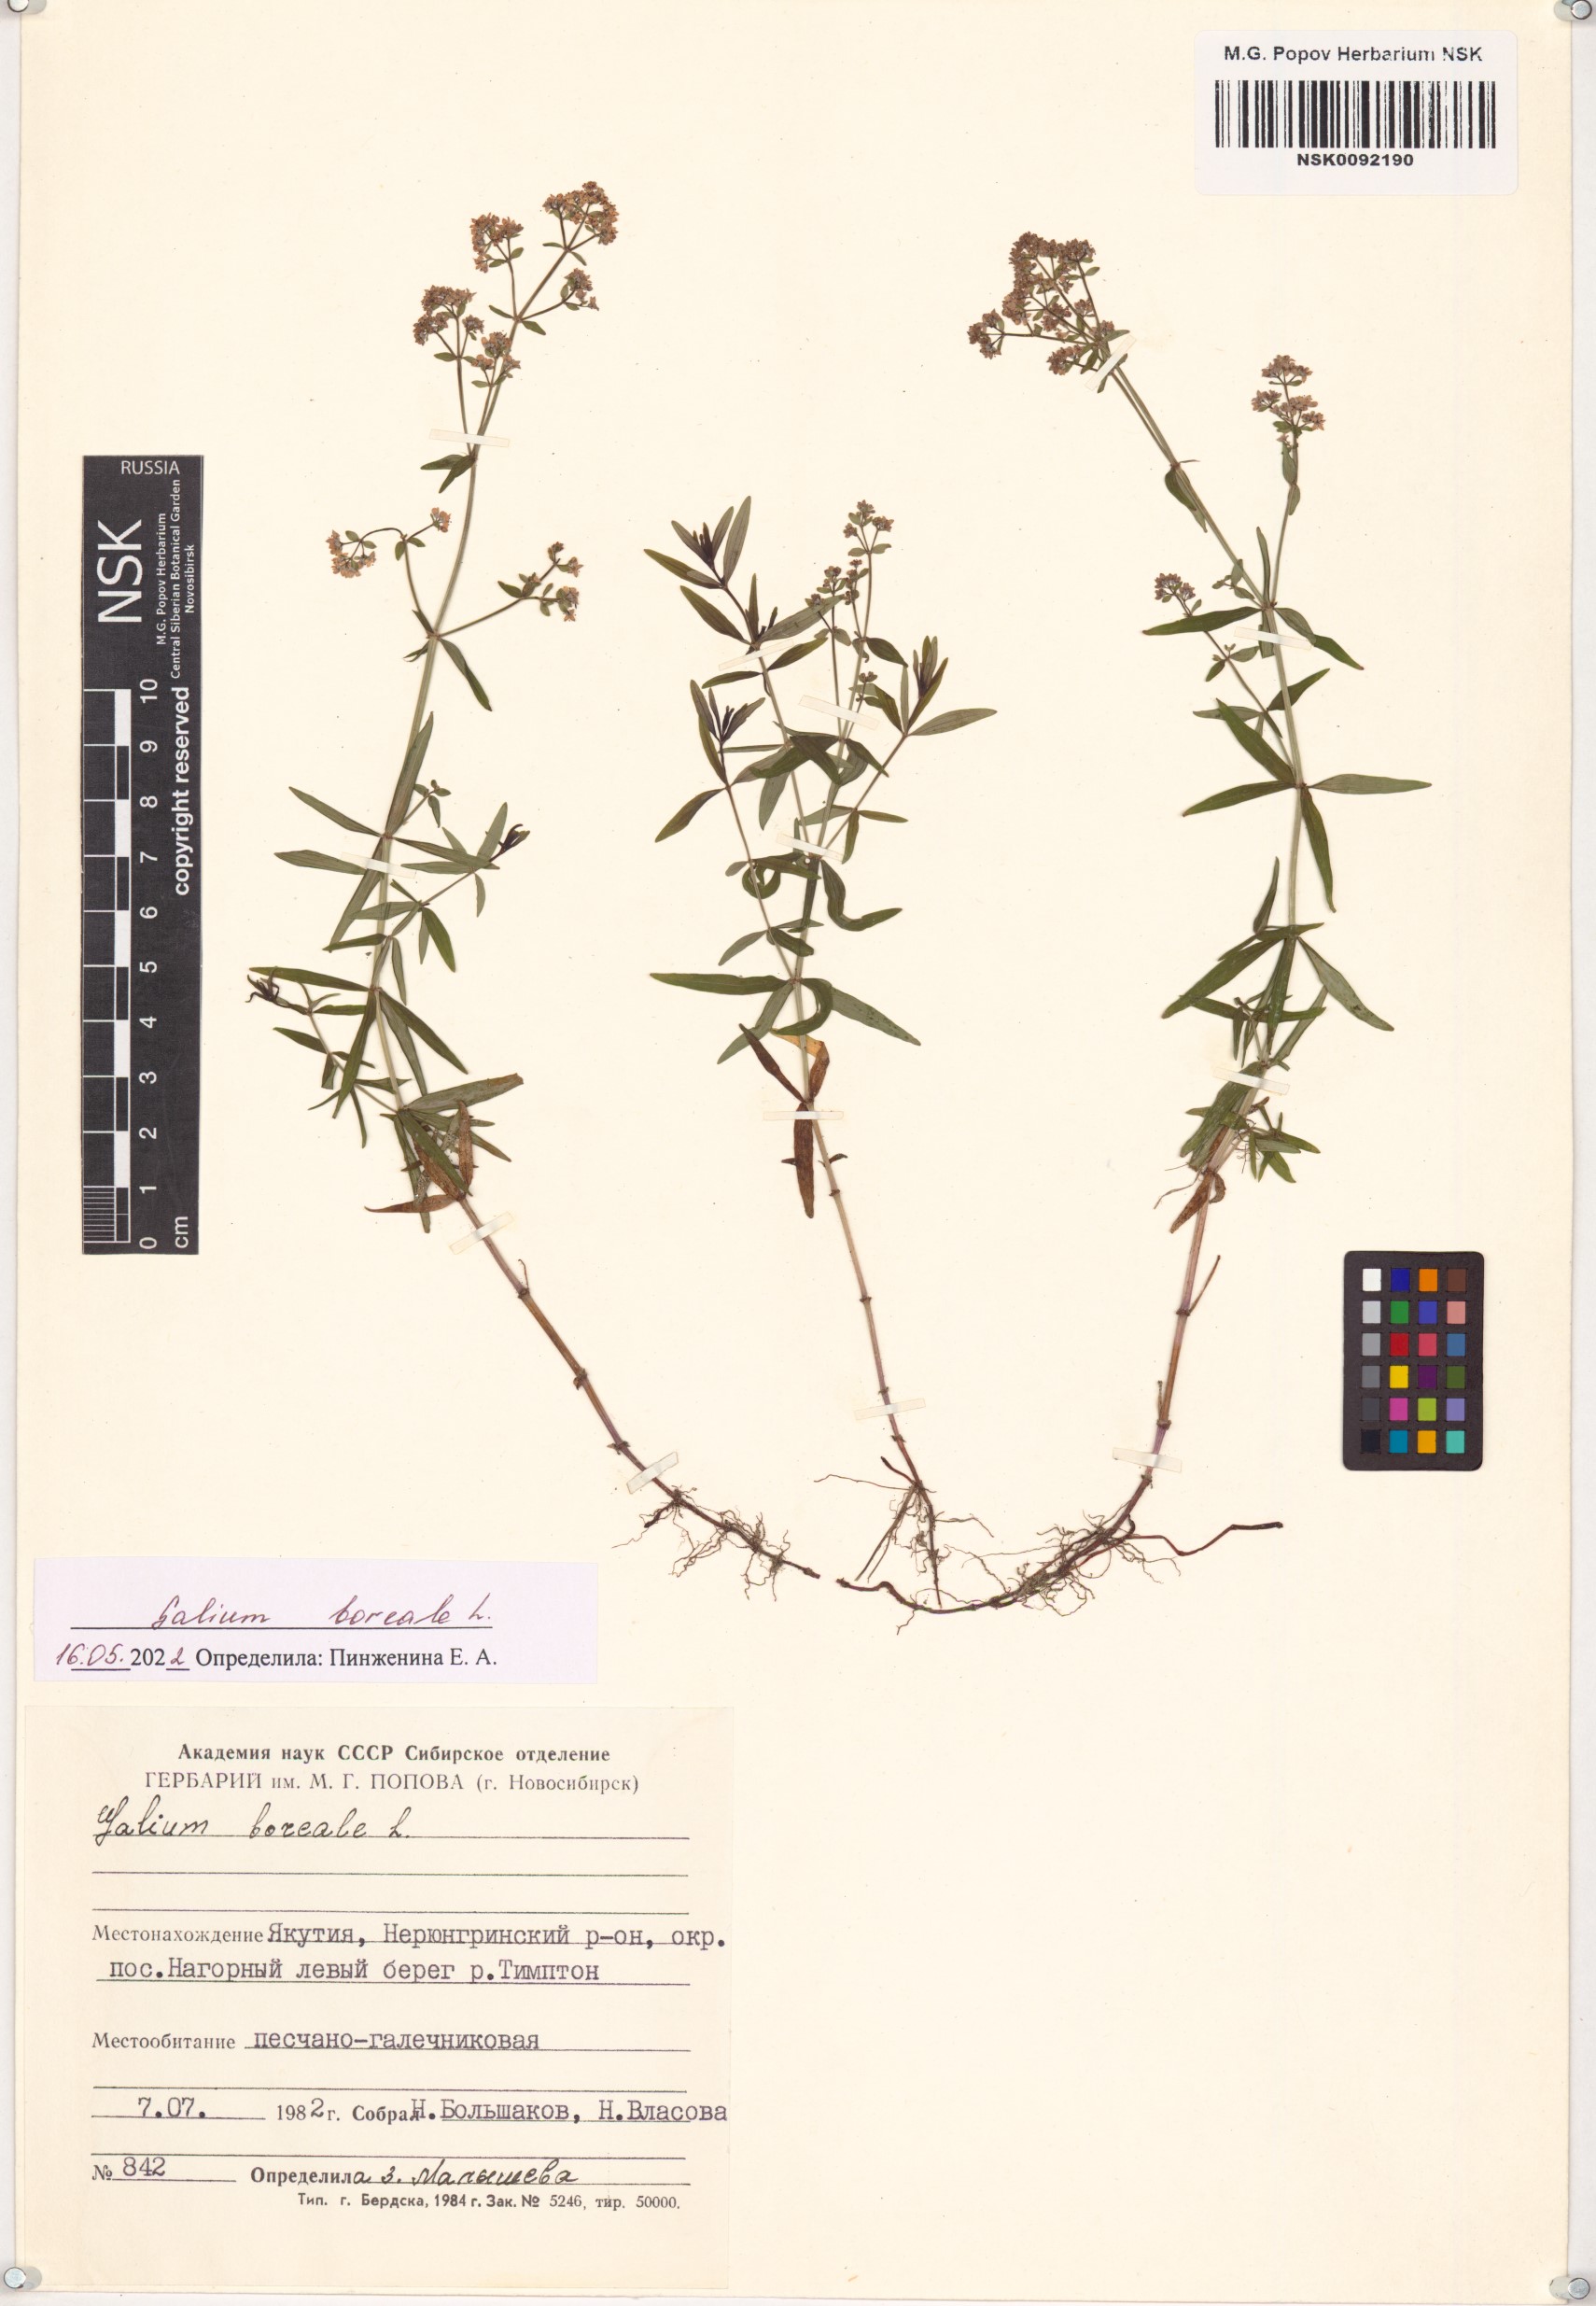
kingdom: Plantae
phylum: Tracheophyta
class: Magnoliopsida
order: Gentianales
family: Rubiaceae
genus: Galium
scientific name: Galium boreale
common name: Northern bedstraw
